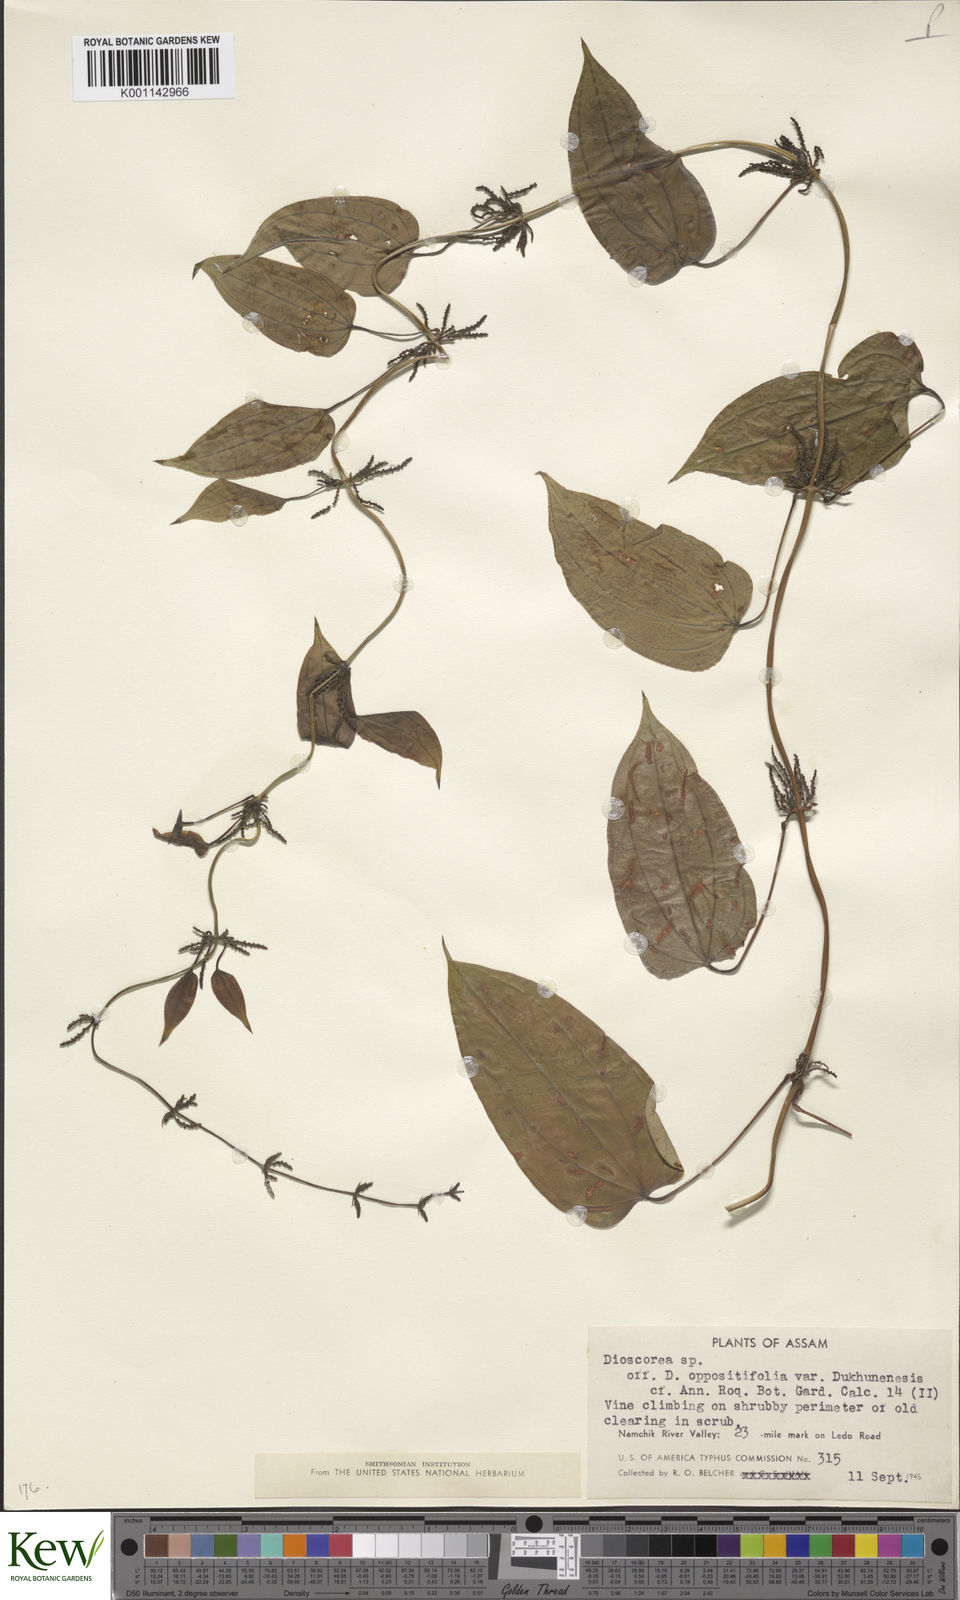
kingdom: Plantae
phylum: Tracheophyta
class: Liliopsida
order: Dioscoreales
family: Dioscoreaceae
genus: Dioscorea
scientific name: Dioscorea oppositifolia
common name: Chinese yam
